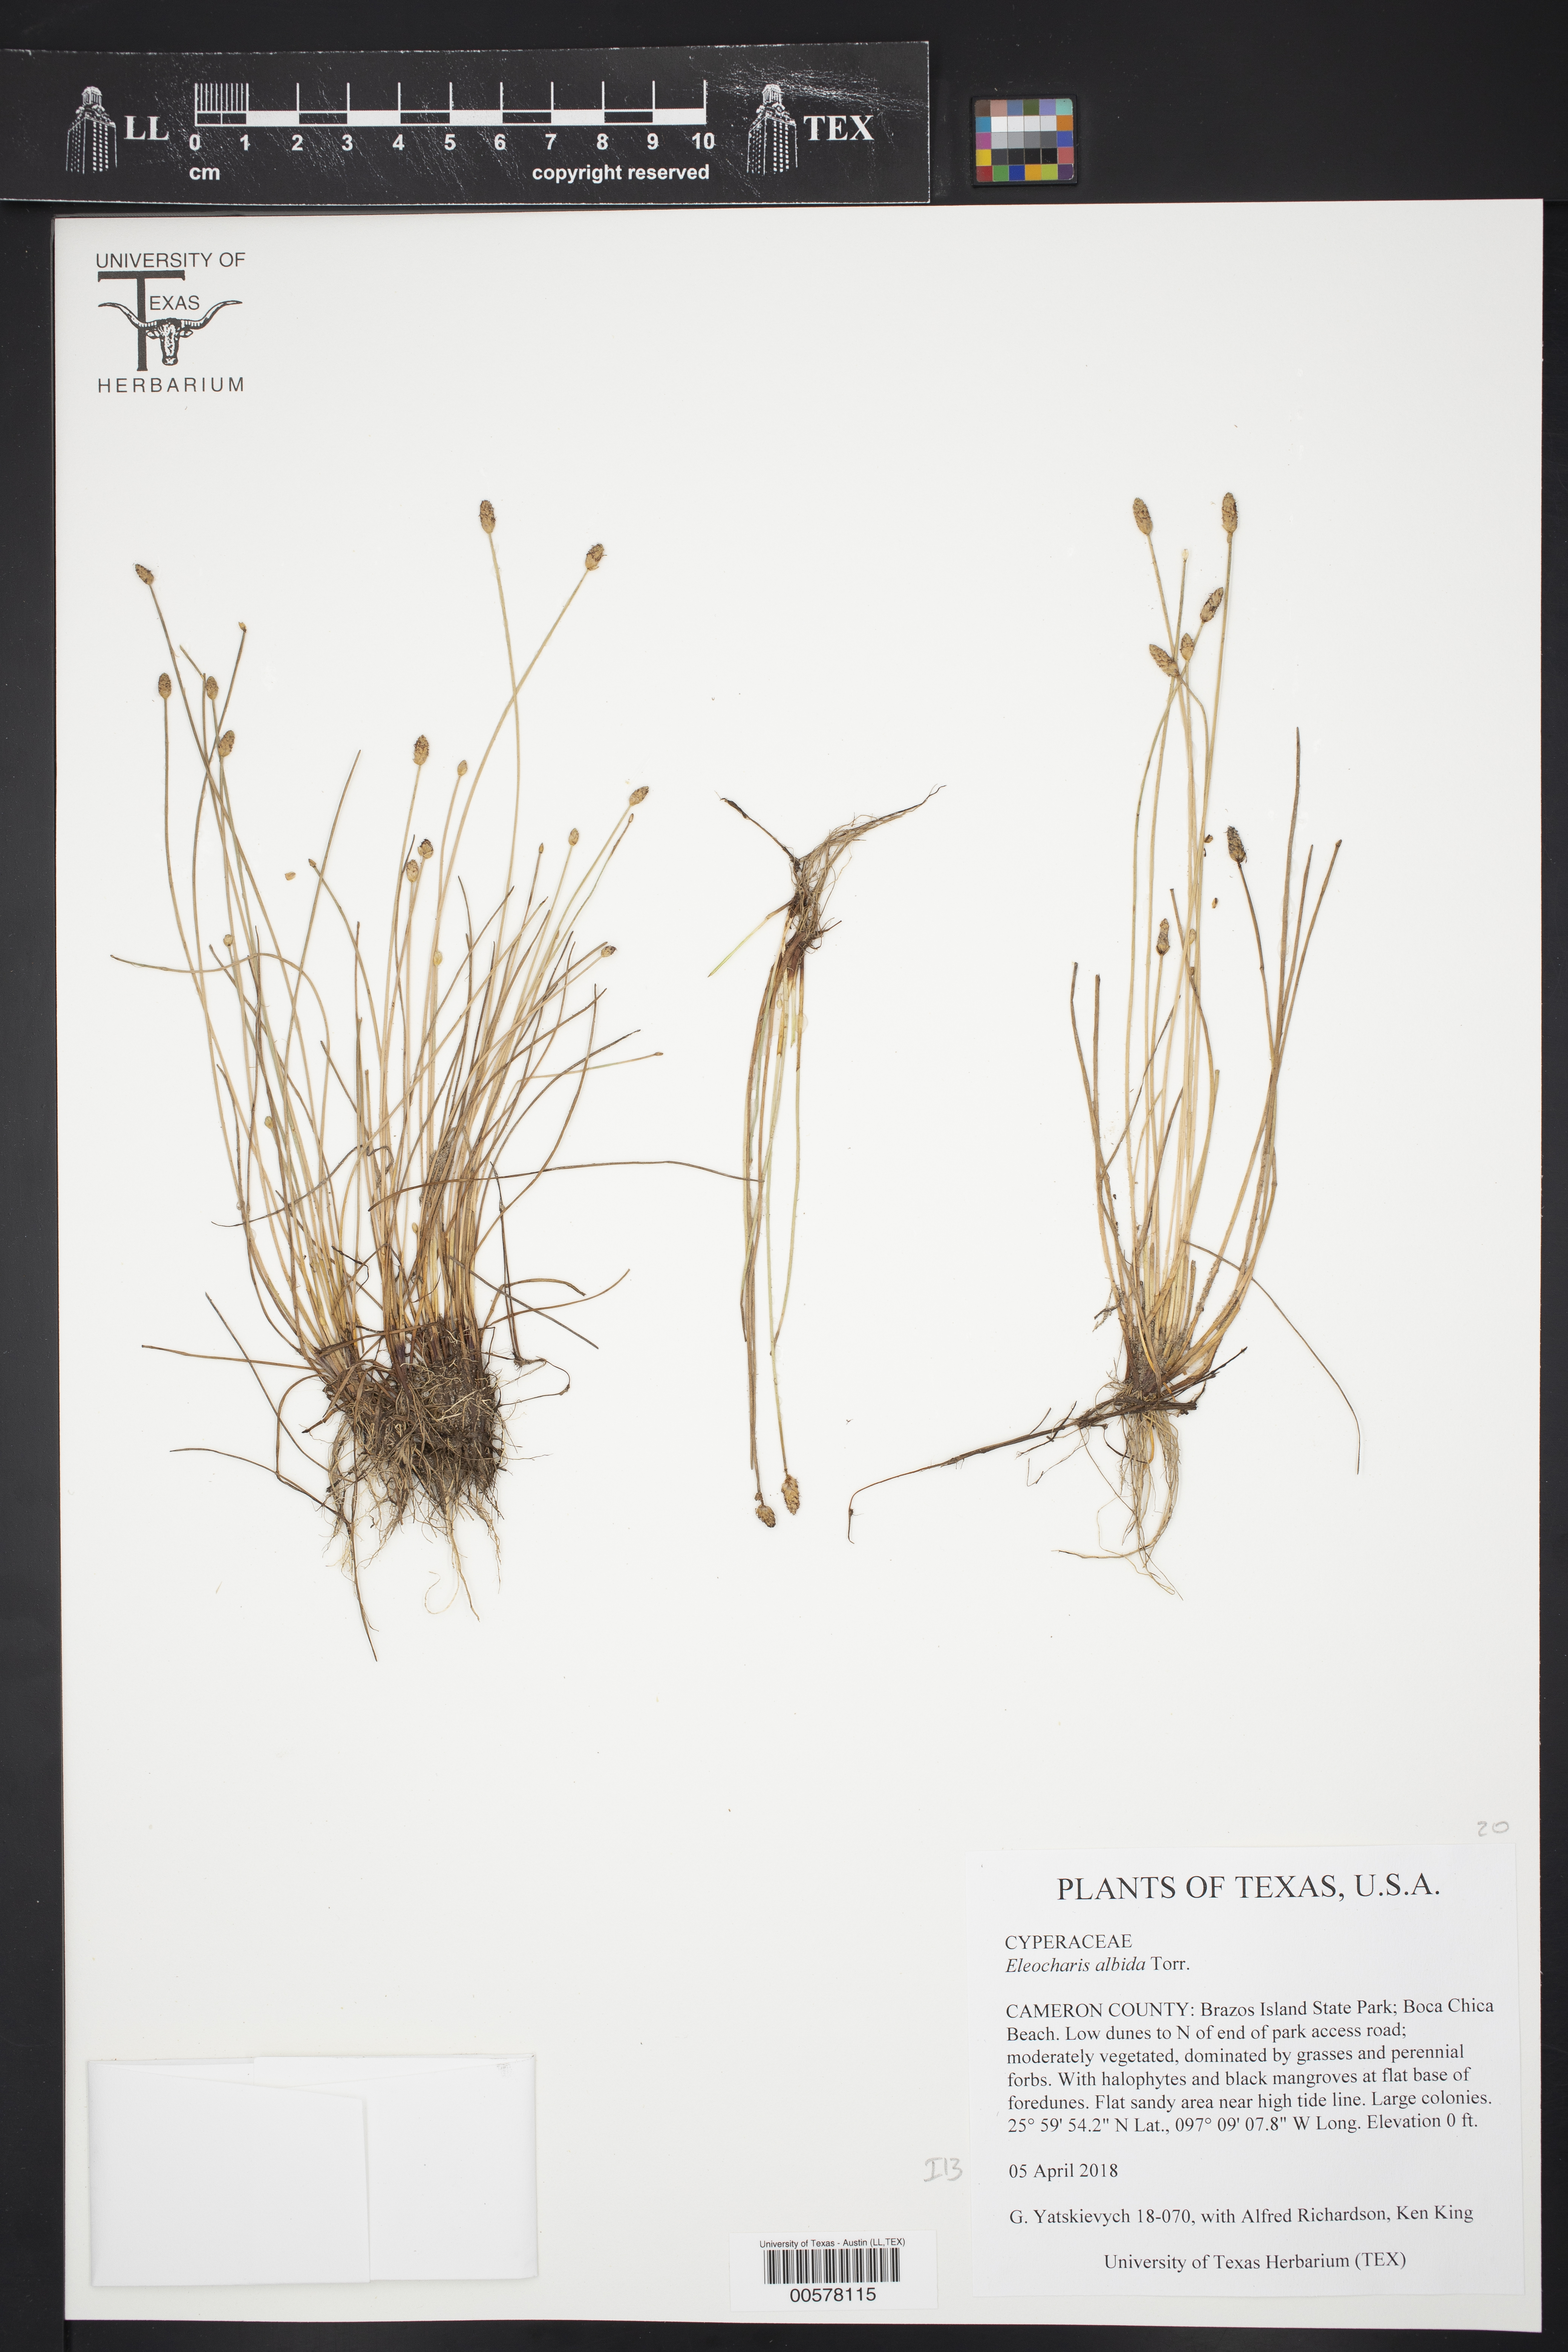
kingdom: Plantae
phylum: Tracheophyta
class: Liliopsida
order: Poales
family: Cyperaceae
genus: Eleocharis
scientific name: Eleocharis albida
